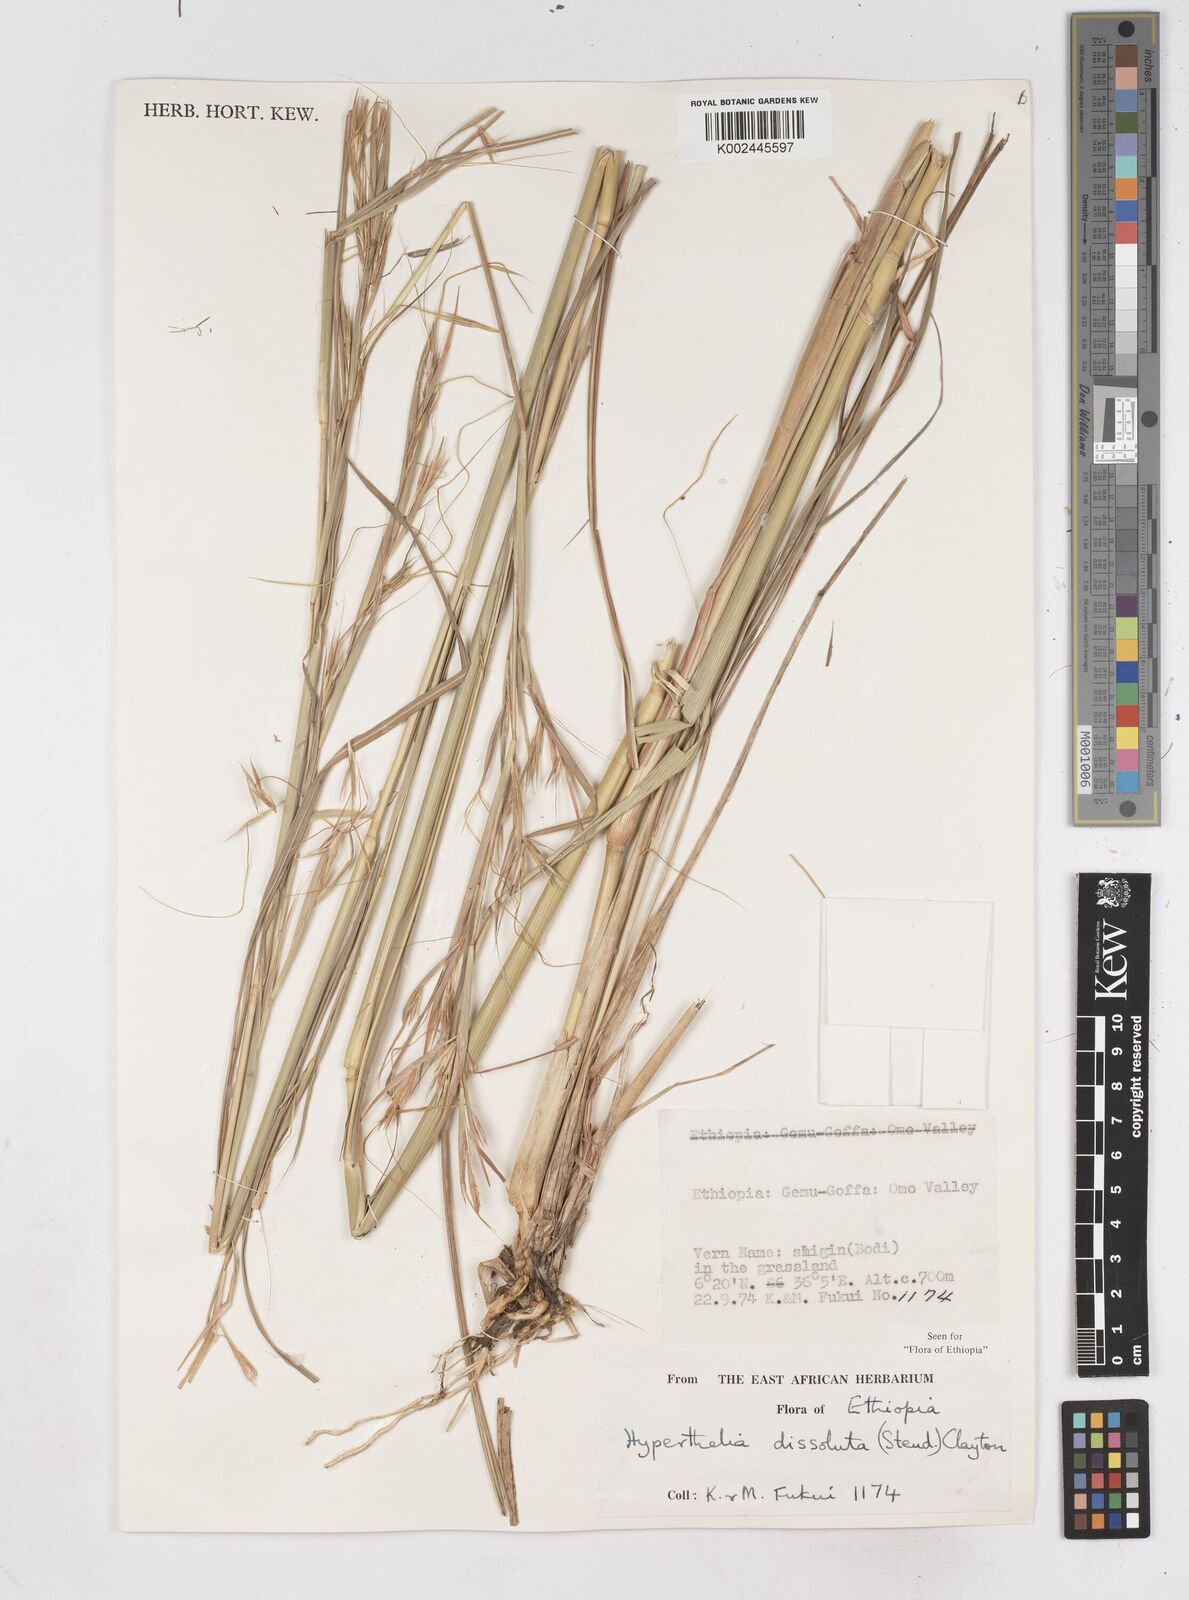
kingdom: Plantae
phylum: Tracheophyta
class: Liliopsida
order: Poales
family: Poaceae
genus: Hyperthelia
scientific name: Hyperthelia dissoluta
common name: Yellow thatching grass
